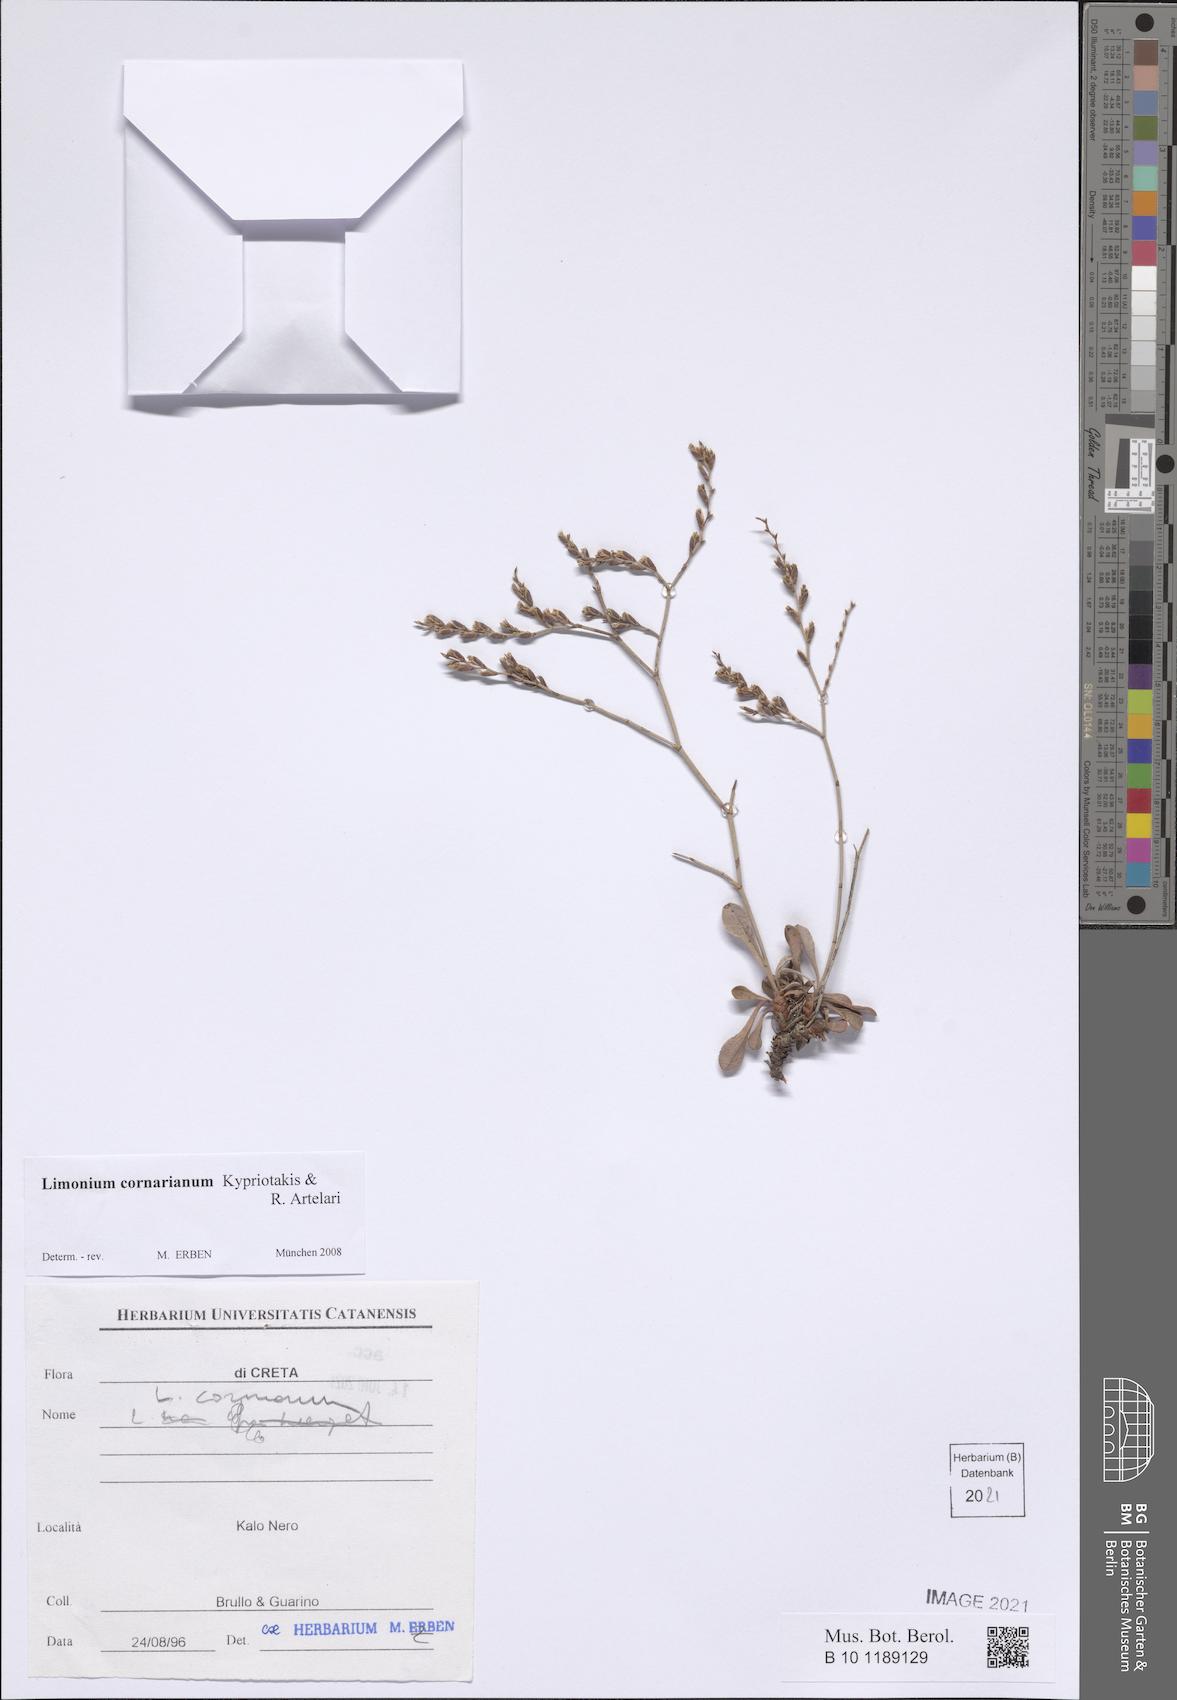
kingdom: Plantae
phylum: Tracheophyta
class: Magnoliopsida
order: Caryophyllales
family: Plumbaginaceae
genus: Limonium
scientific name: Limonium cornarianum
